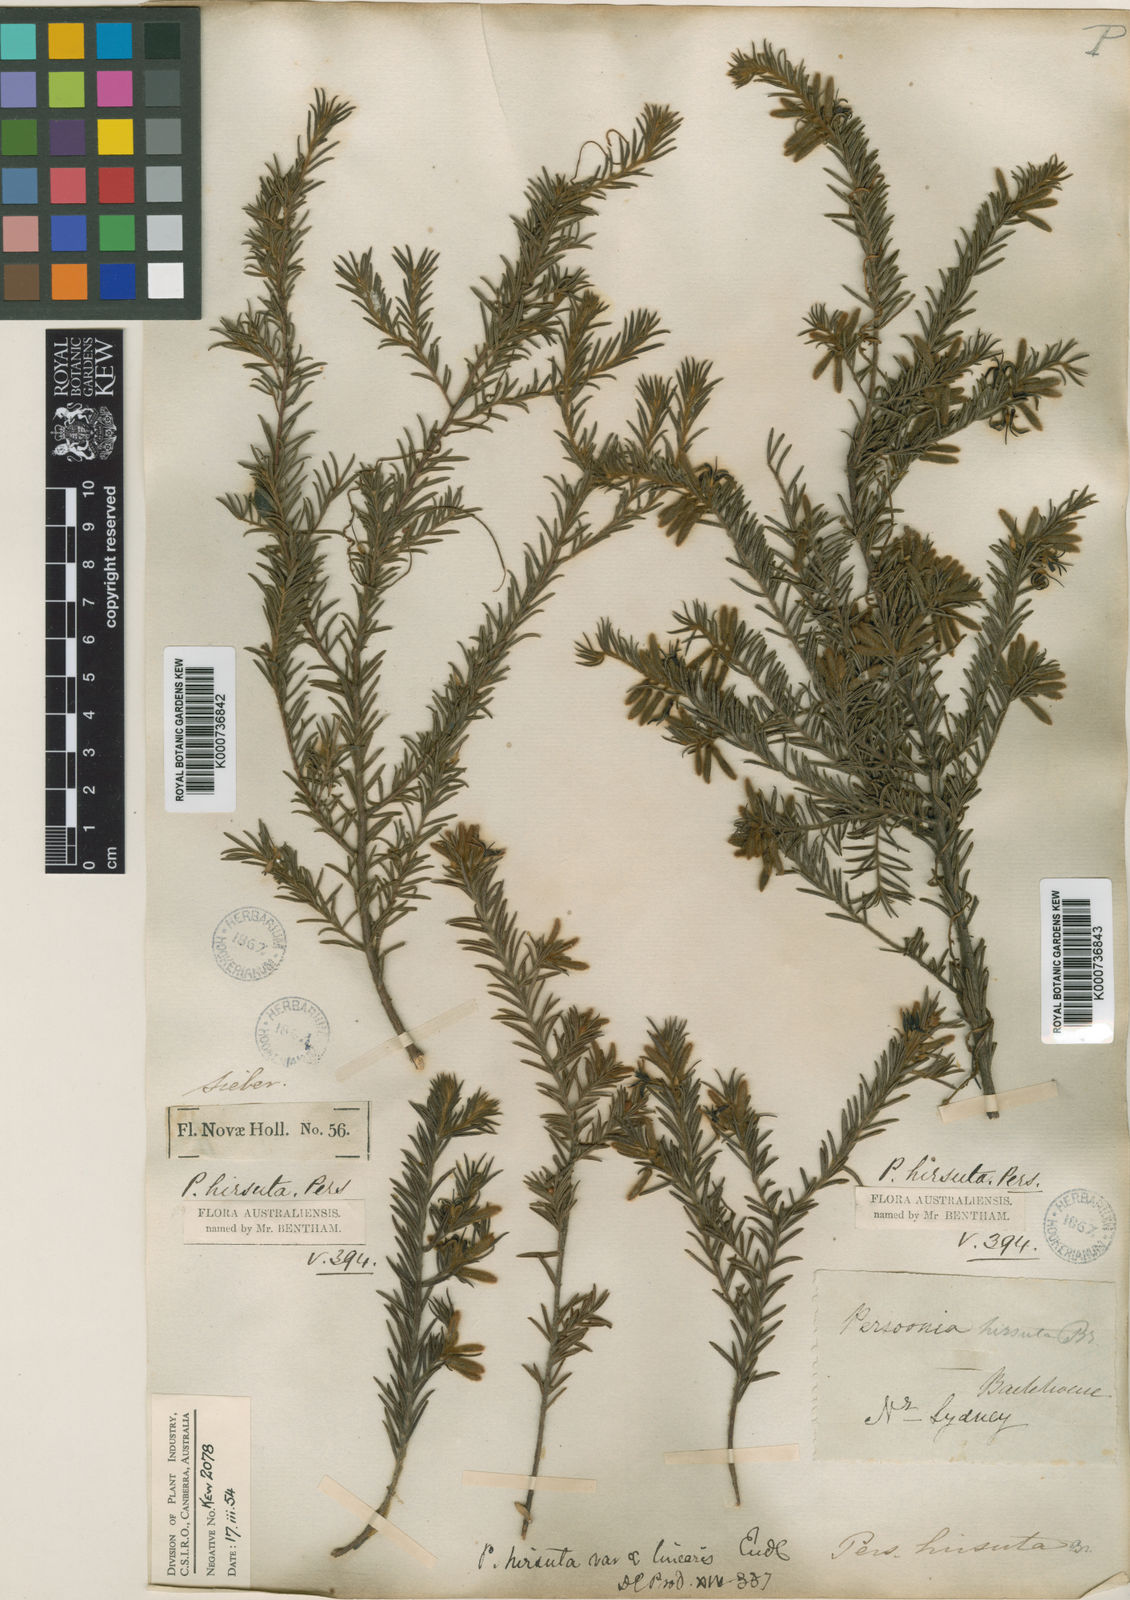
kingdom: Plantae
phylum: Tracheophyta
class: Magnoliopsida
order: Proteales
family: Proteaceae
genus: Persoonia
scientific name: Persoonia hirsuta
